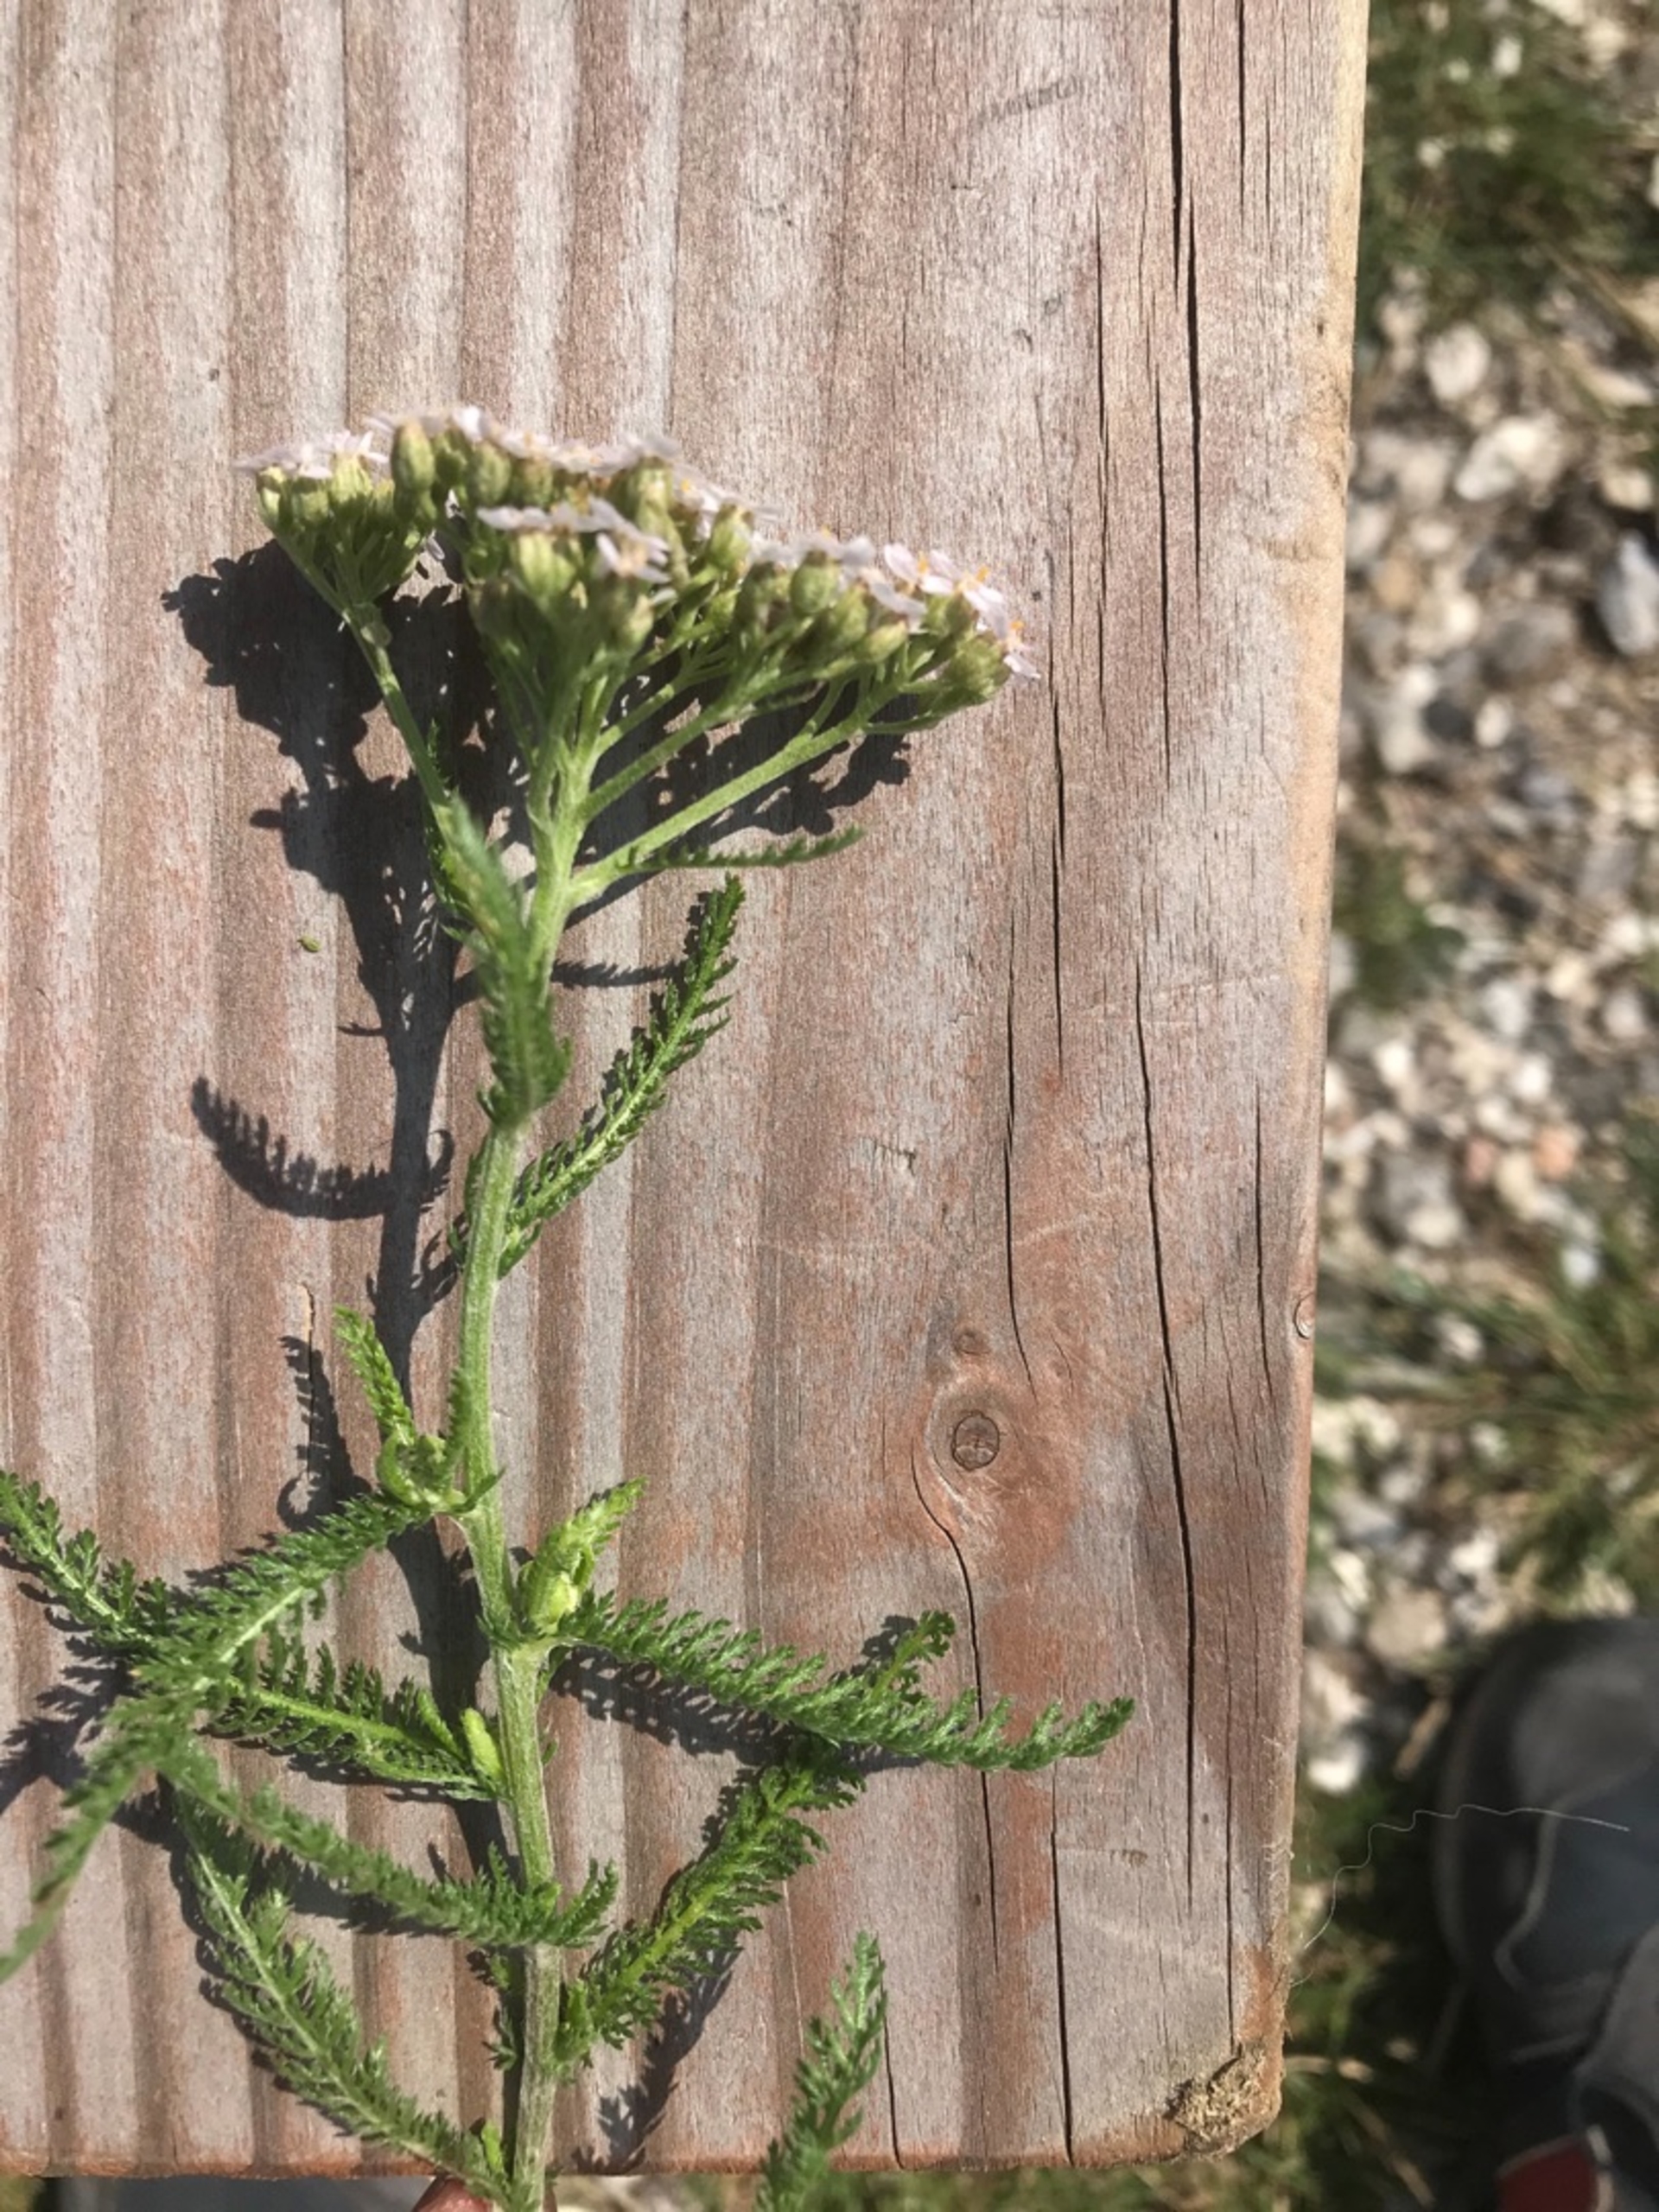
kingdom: Plantae
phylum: Tracheophyta
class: Magnoliopsida
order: Asterales
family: Asteraceae
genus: Achillea
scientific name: Achillea millefolium
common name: Almindelig røllike
